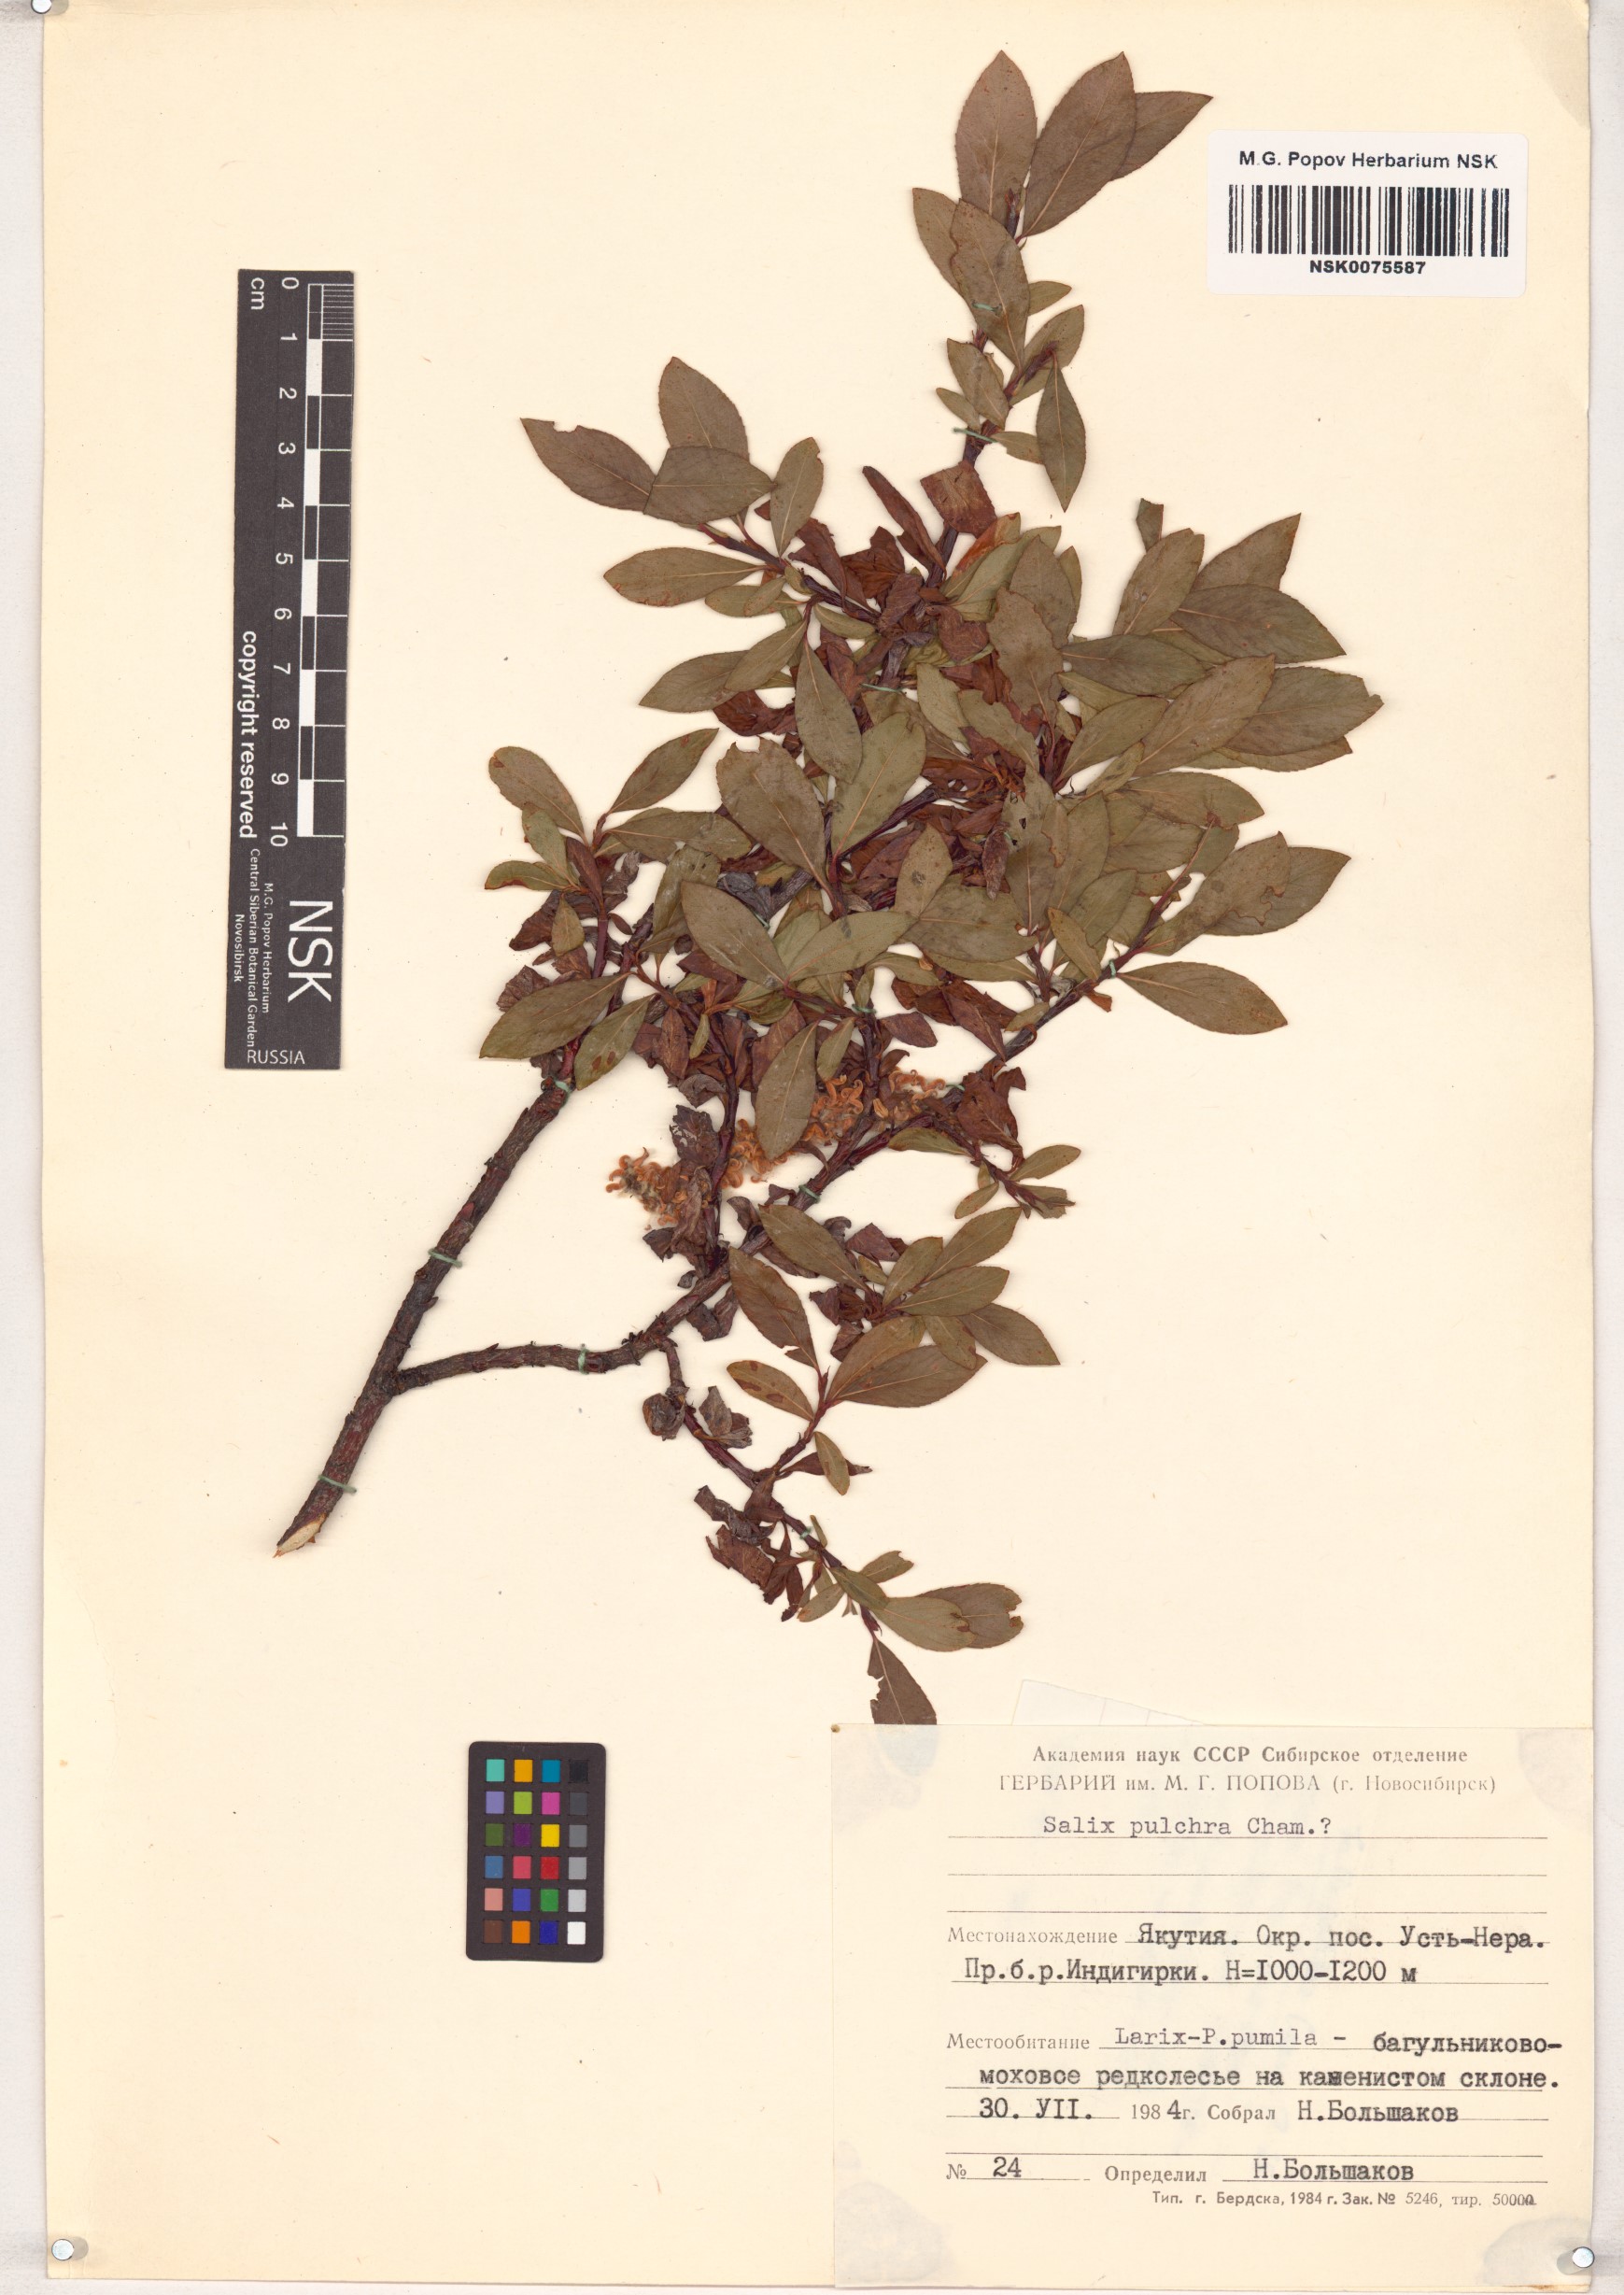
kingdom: Plantae
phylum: Tracheophyta
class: Magnoliopsida
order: Malpighiales
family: Salicaceae
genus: Salix
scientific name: Salix pulchra
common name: Diamond-leaved willow
